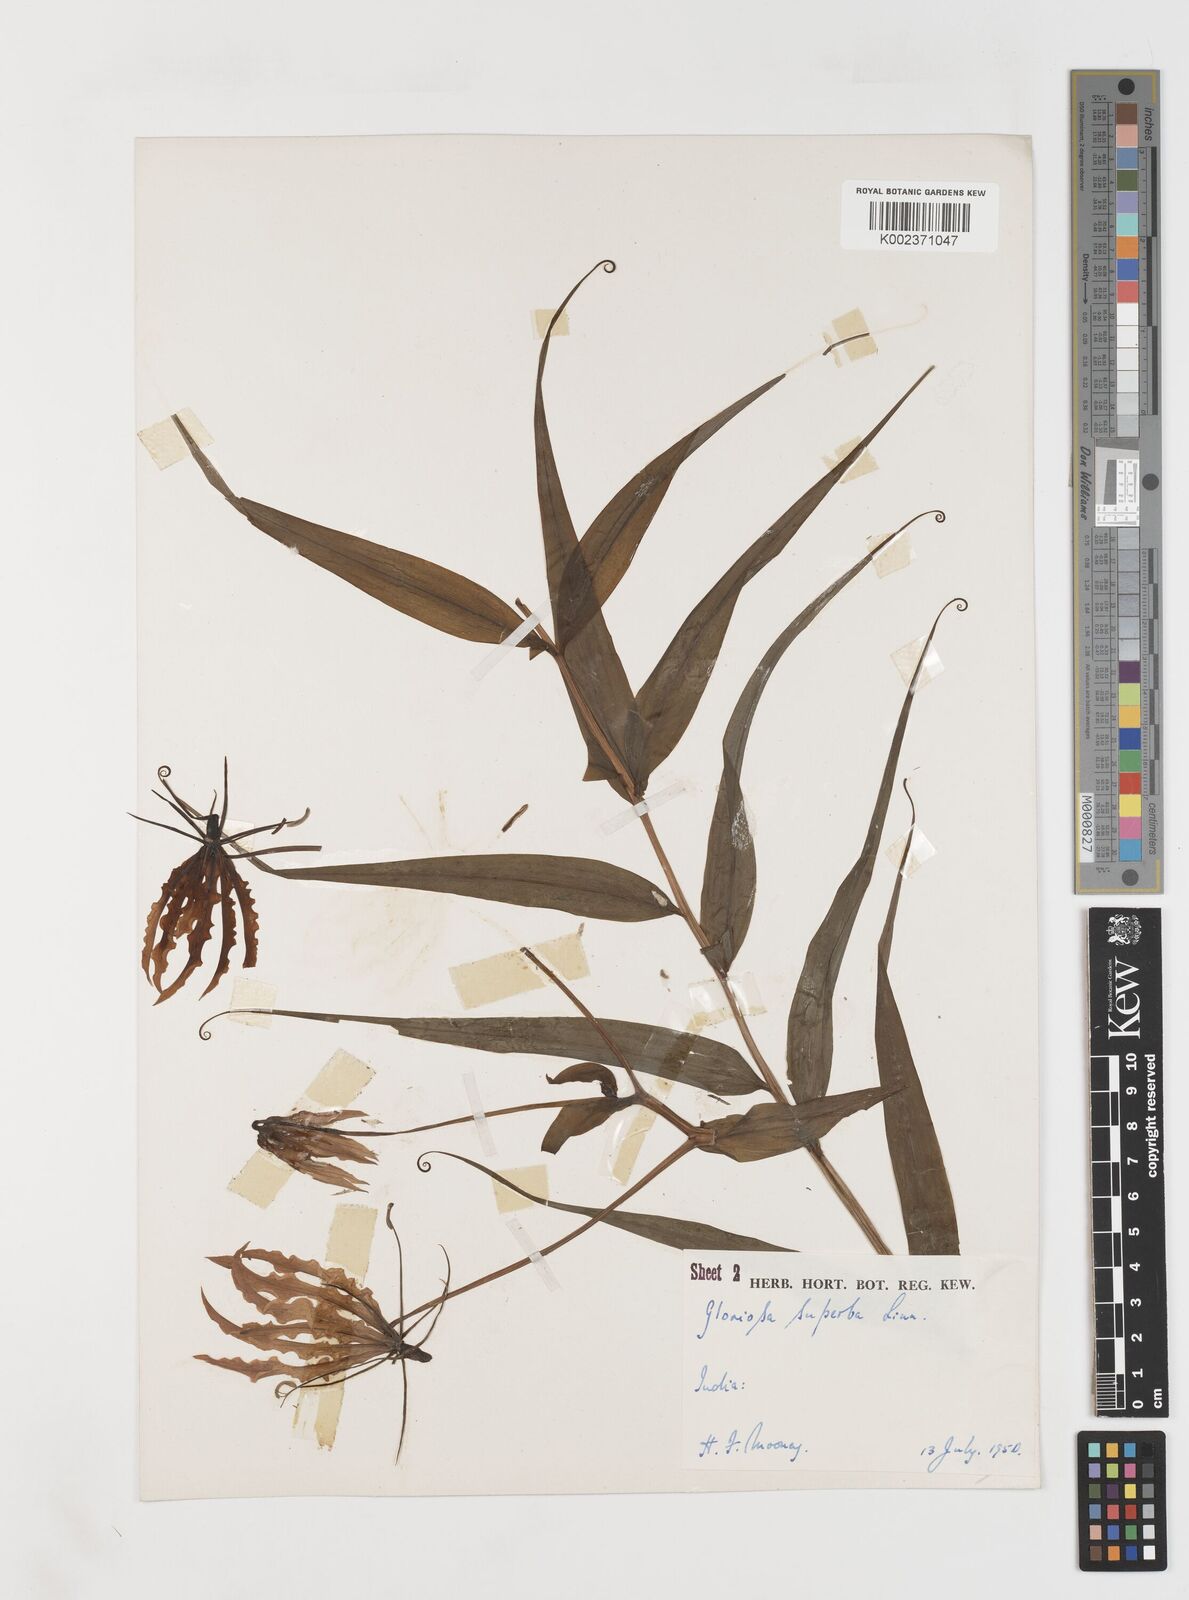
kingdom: Plantae
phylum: Tracheophyta
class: Liliopsida
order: Liliales
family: Colchicaceae
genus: Gloriosa
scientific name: Gloriosa superba
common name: Flame lily
